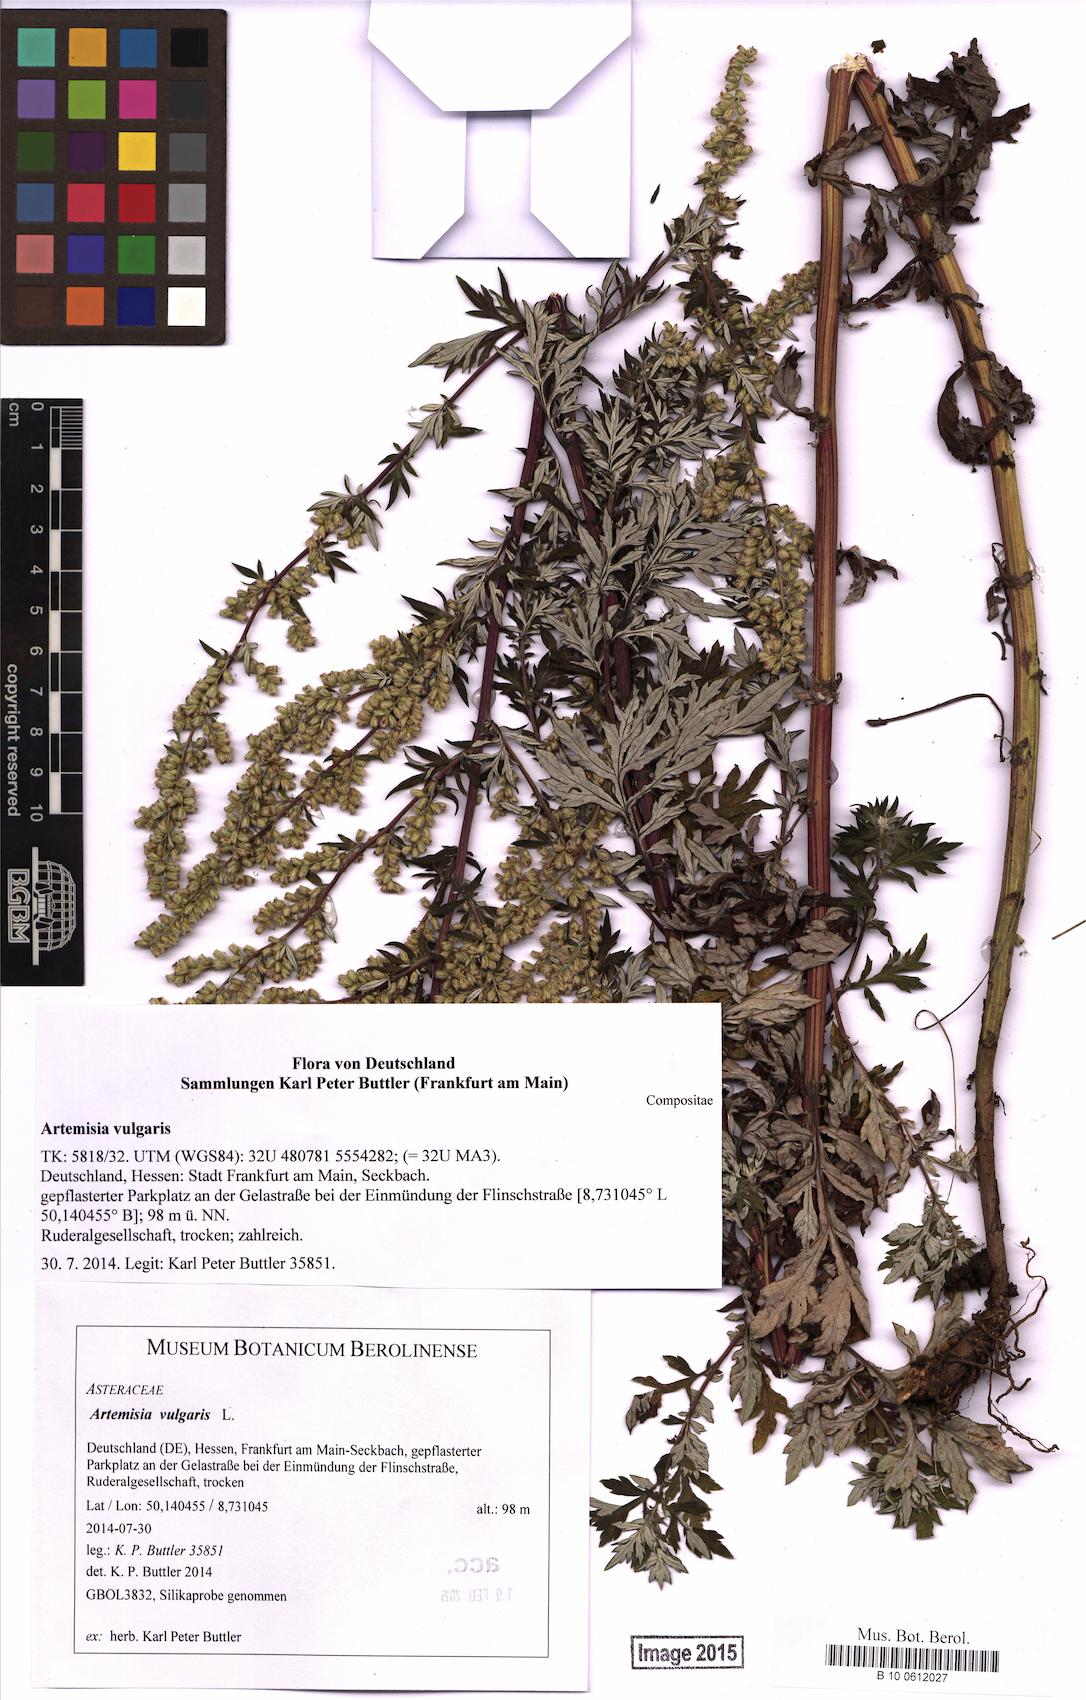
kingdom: Plantae
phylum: Tracheophyta
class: Magnoliopsida
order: Asterales
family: Asteraceae
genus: Artemisia
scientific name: Artemisia vulgaris
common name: Mugwort
